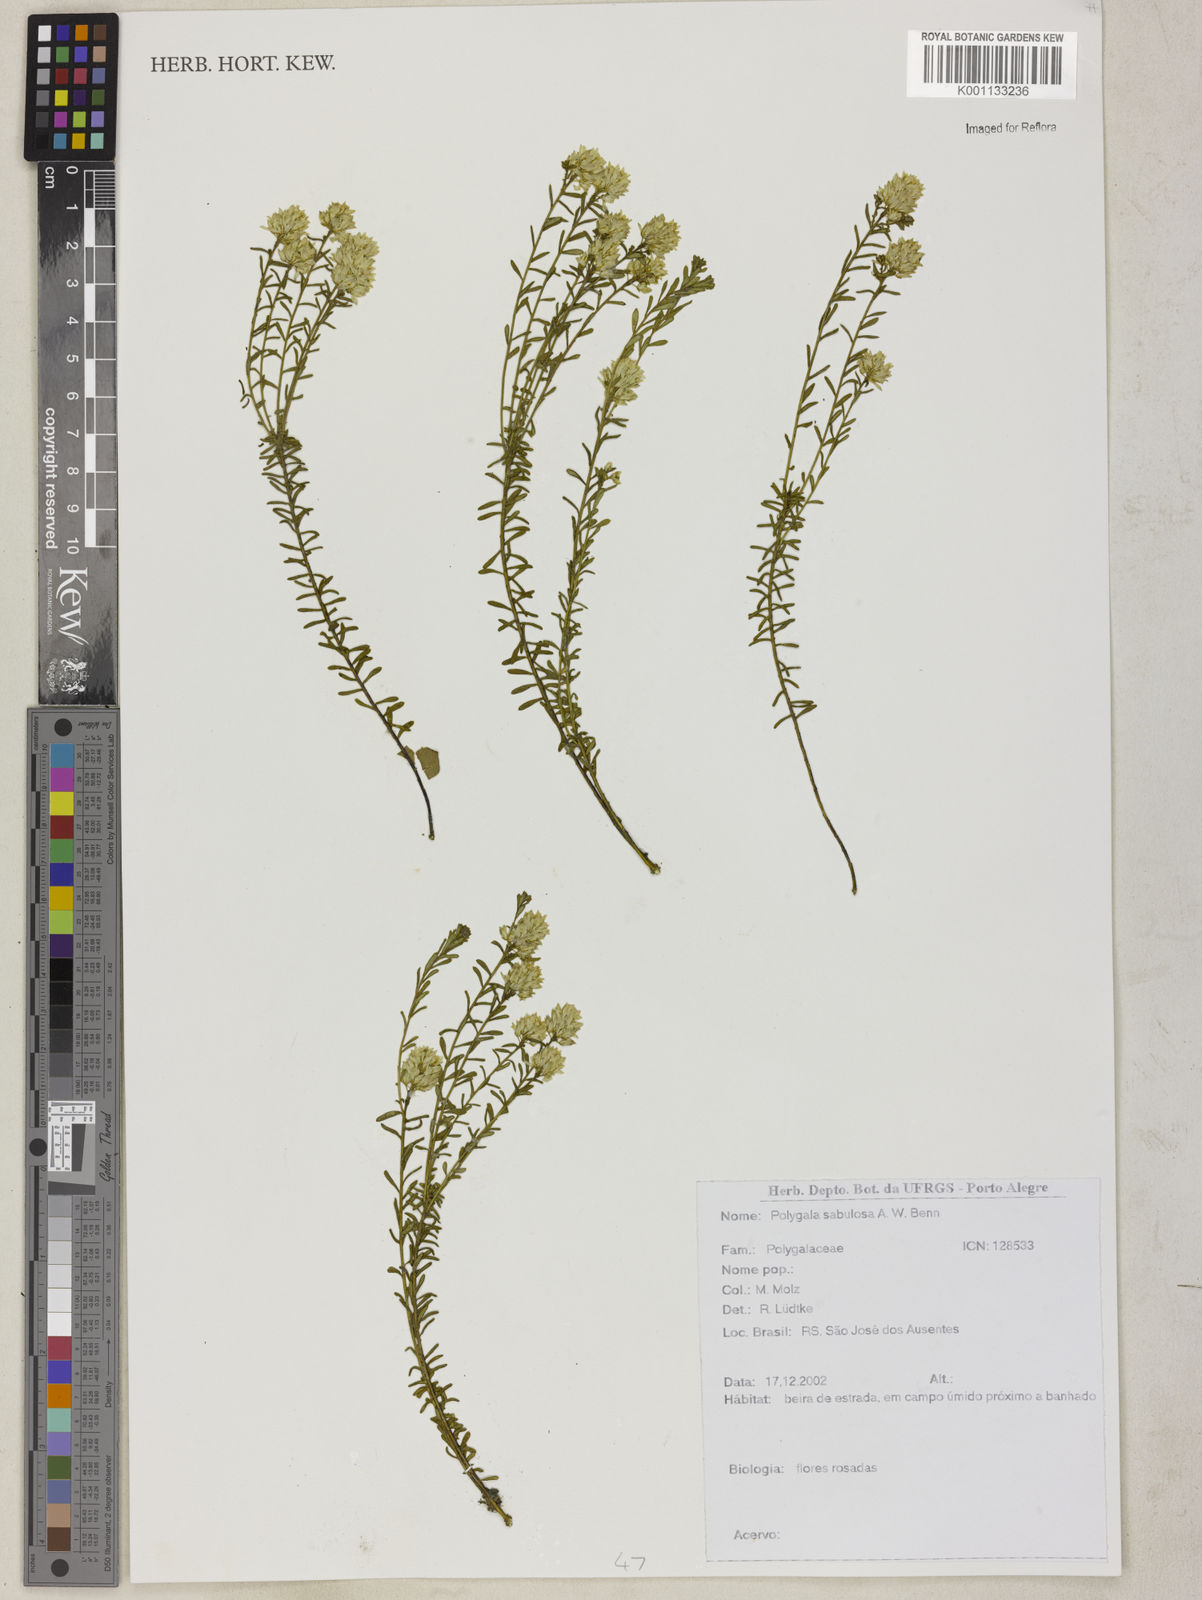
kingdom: Plantae
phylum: Tracheophyta
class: Magnoliopsida
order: Fabales
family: Polygalaceae
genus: Polygala
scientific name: Polygala sellowiana
